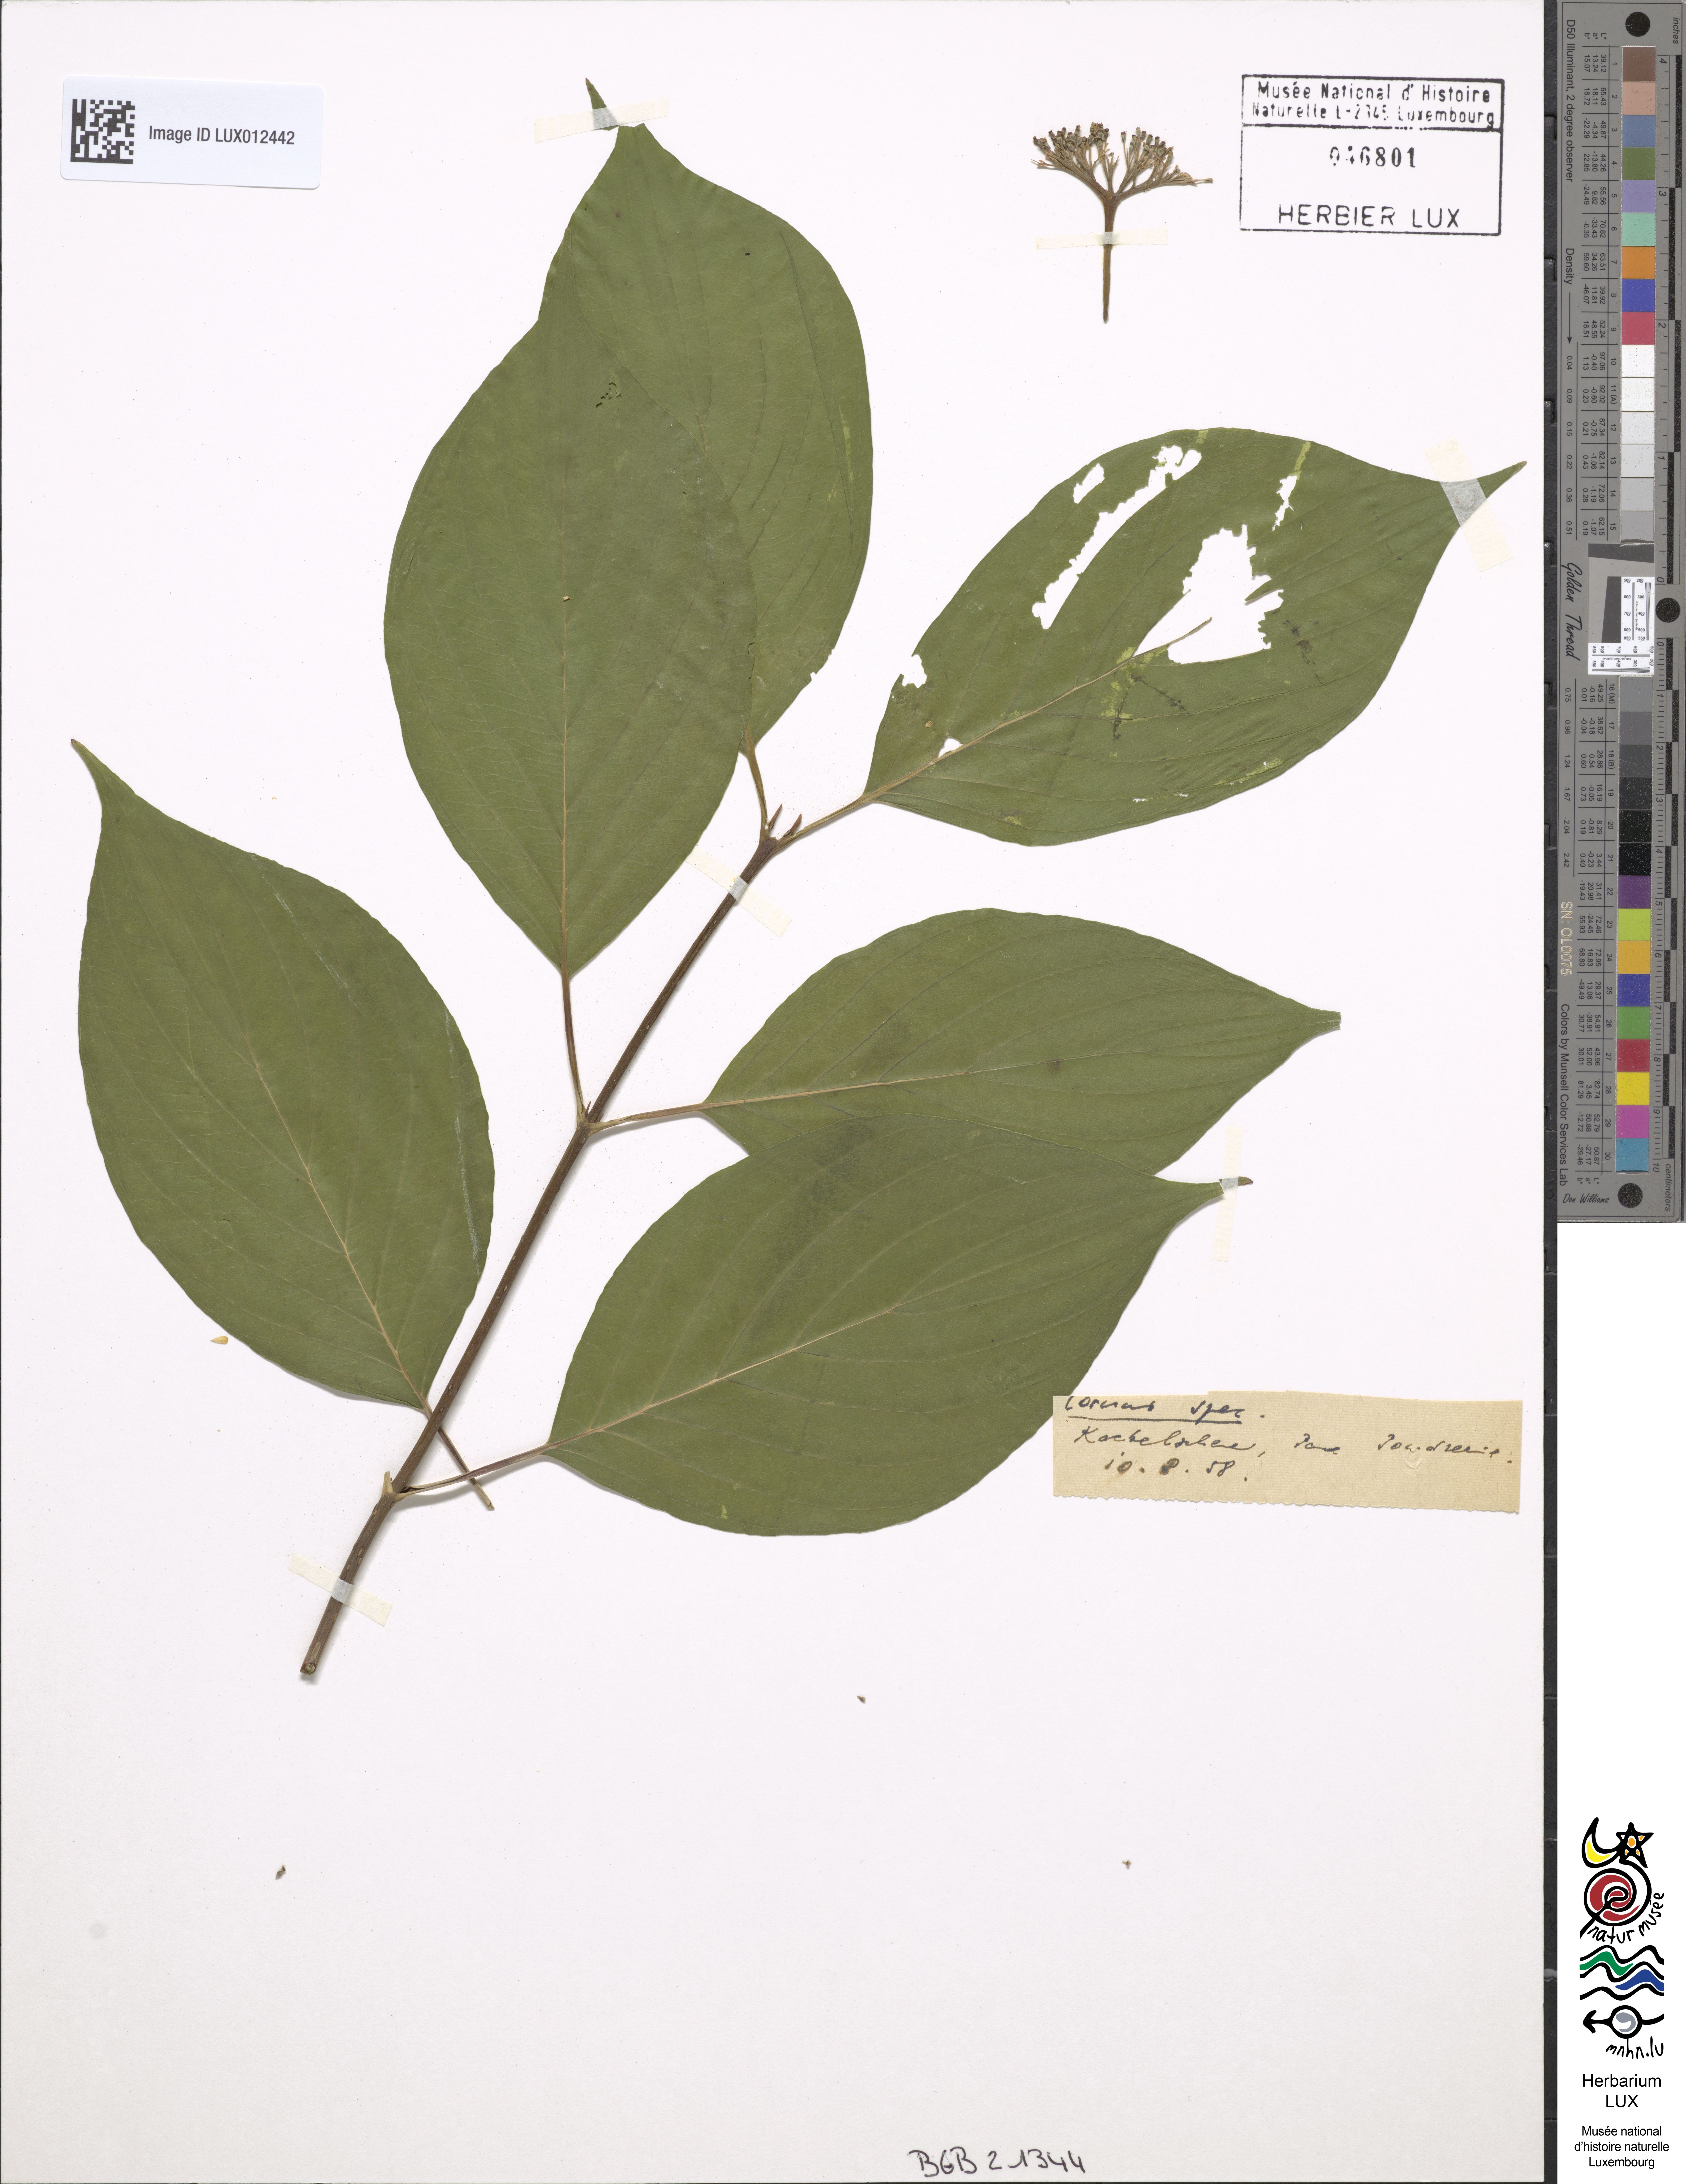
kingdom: Plantae
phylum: Tracheophyta
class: Magnoliopsida
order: Cornales
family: Cornaceae
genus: Cornus
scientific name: Cornus
